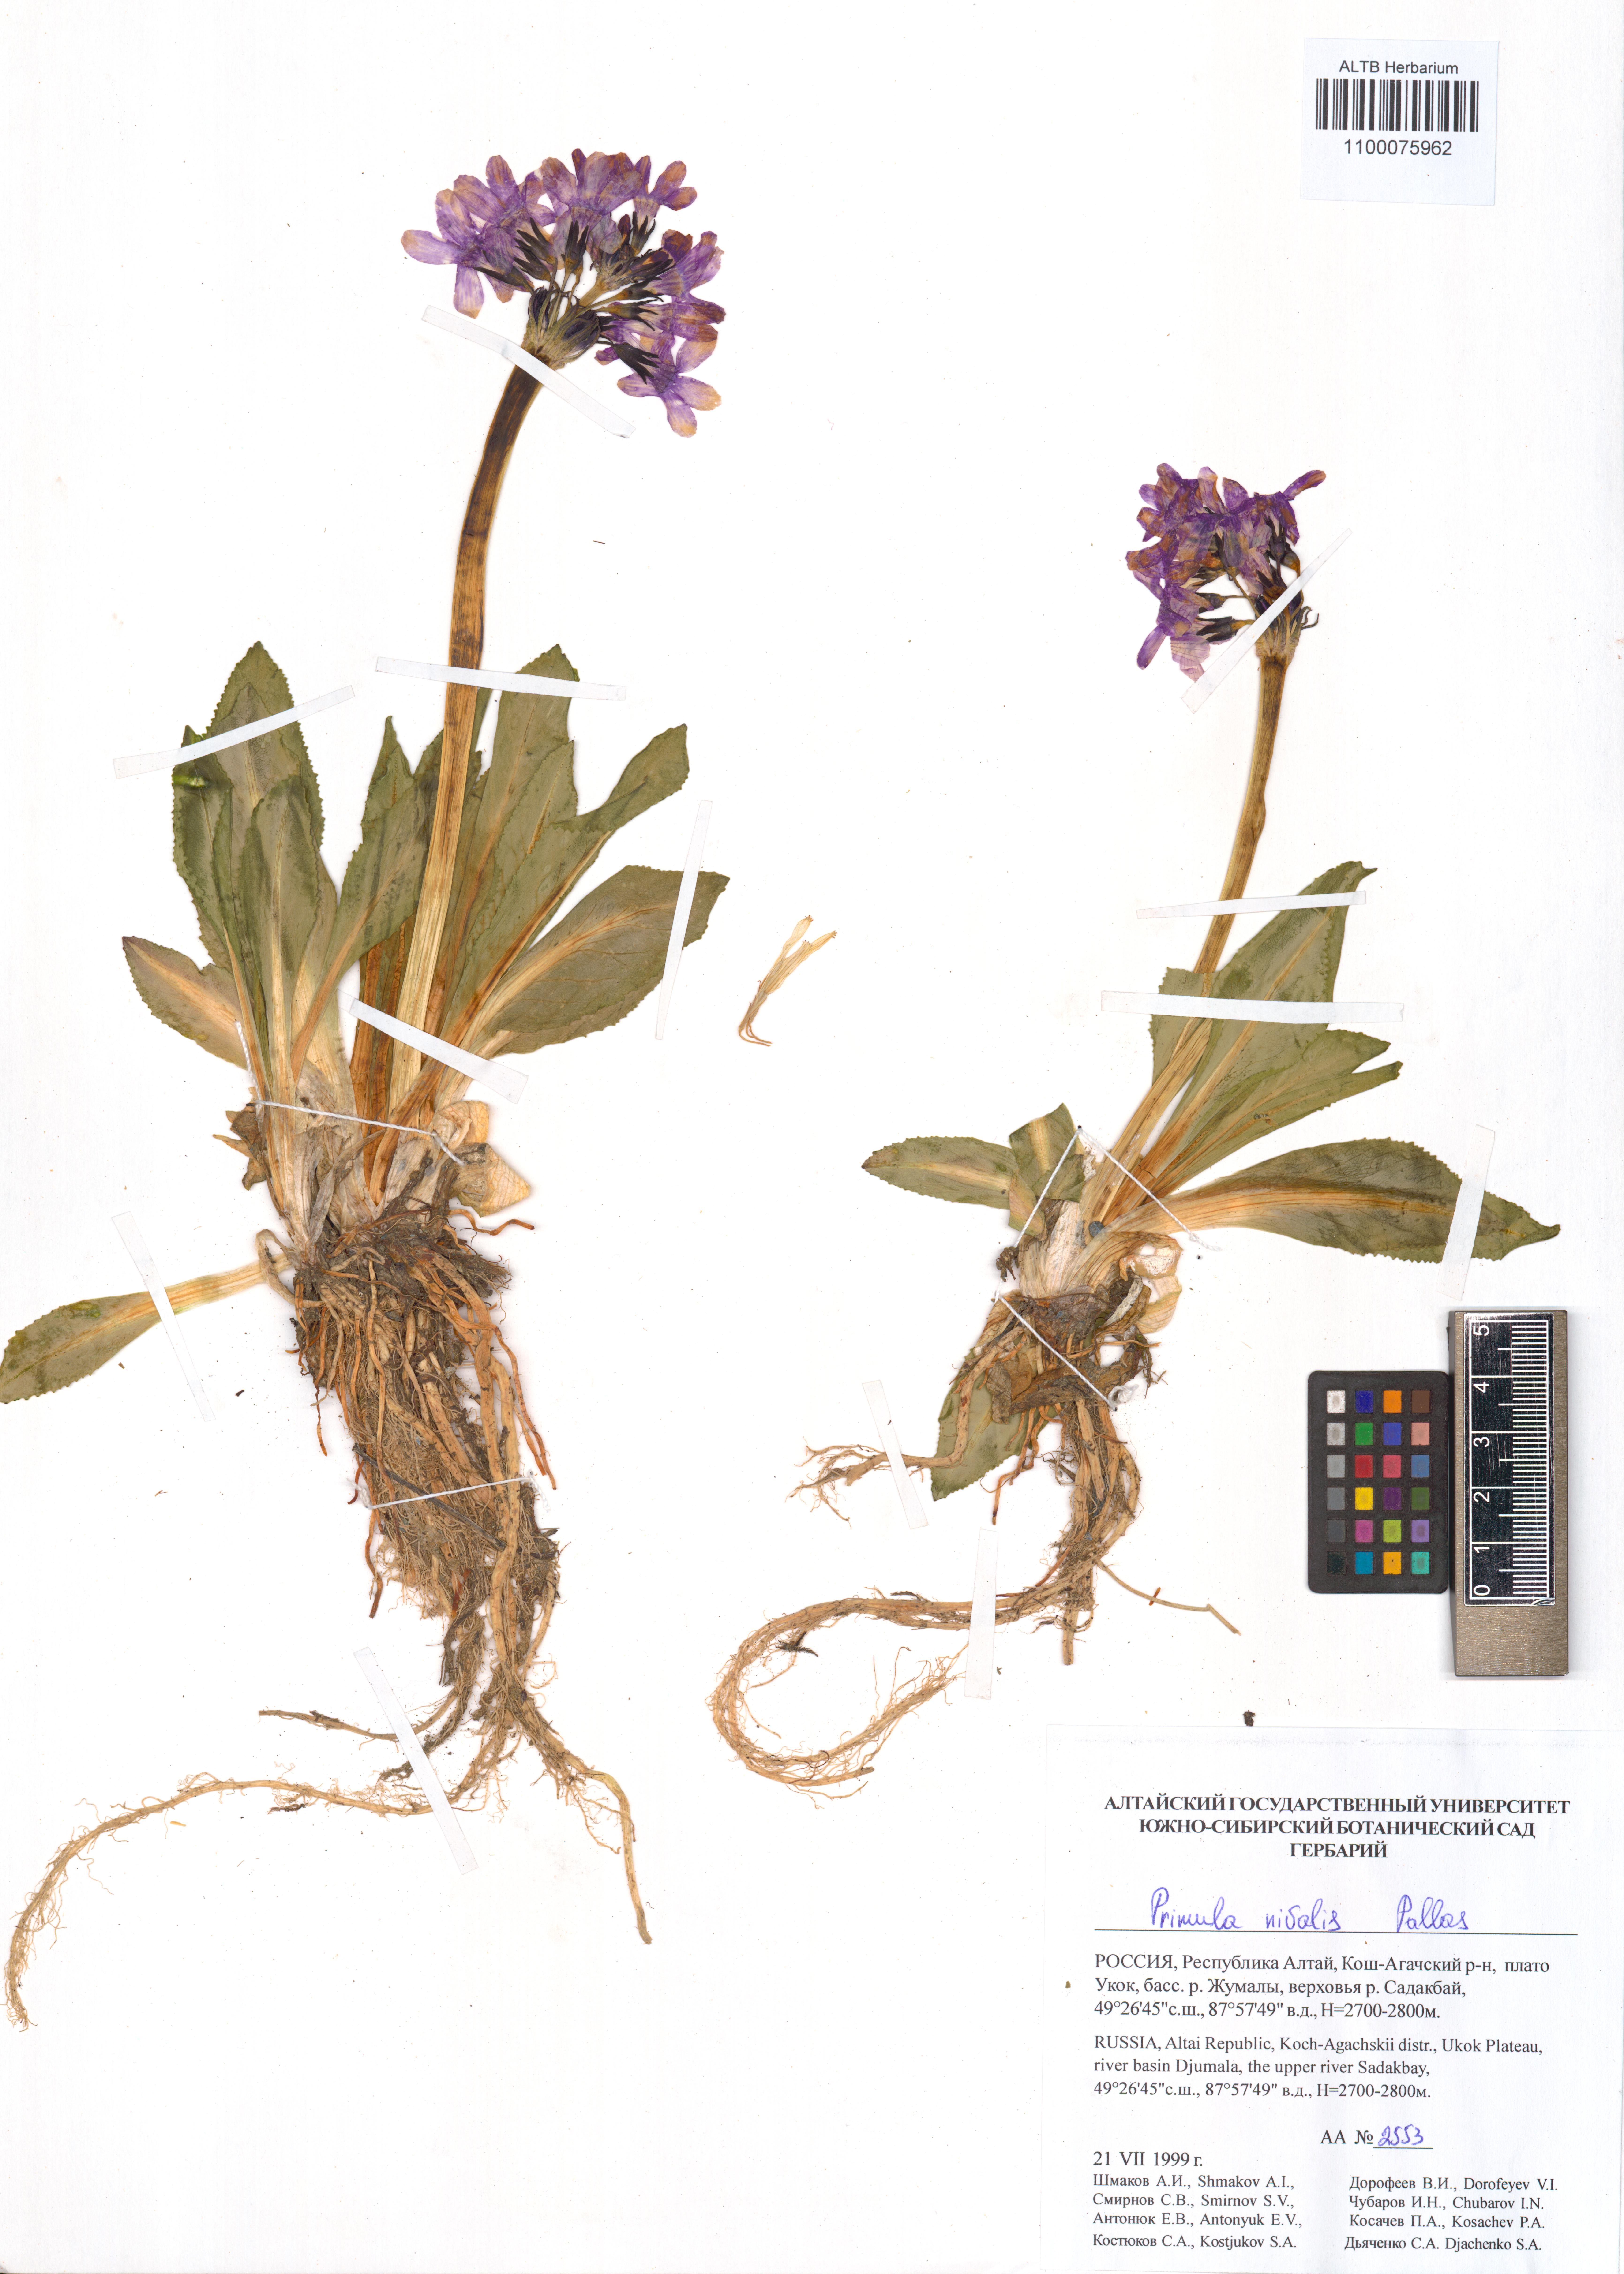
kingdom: Plantae
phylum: Tracheophyta
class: Magnoliopsida
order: Ericales
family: Primulaceae
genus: Primula
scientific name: Primula nivalis
